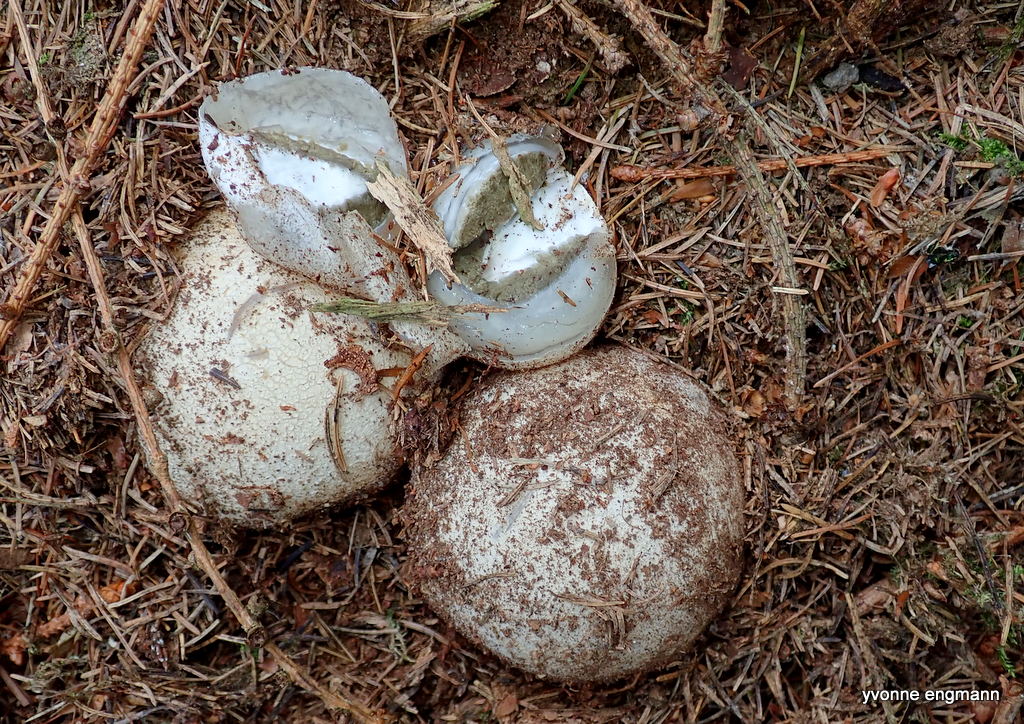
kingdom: Fungi
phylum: Basidiomycota
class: Agaricomycetes
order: Phallales
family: Phallaceae
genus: Phallus
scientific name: Phallus impudicus
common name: almindelig stinksvamp
